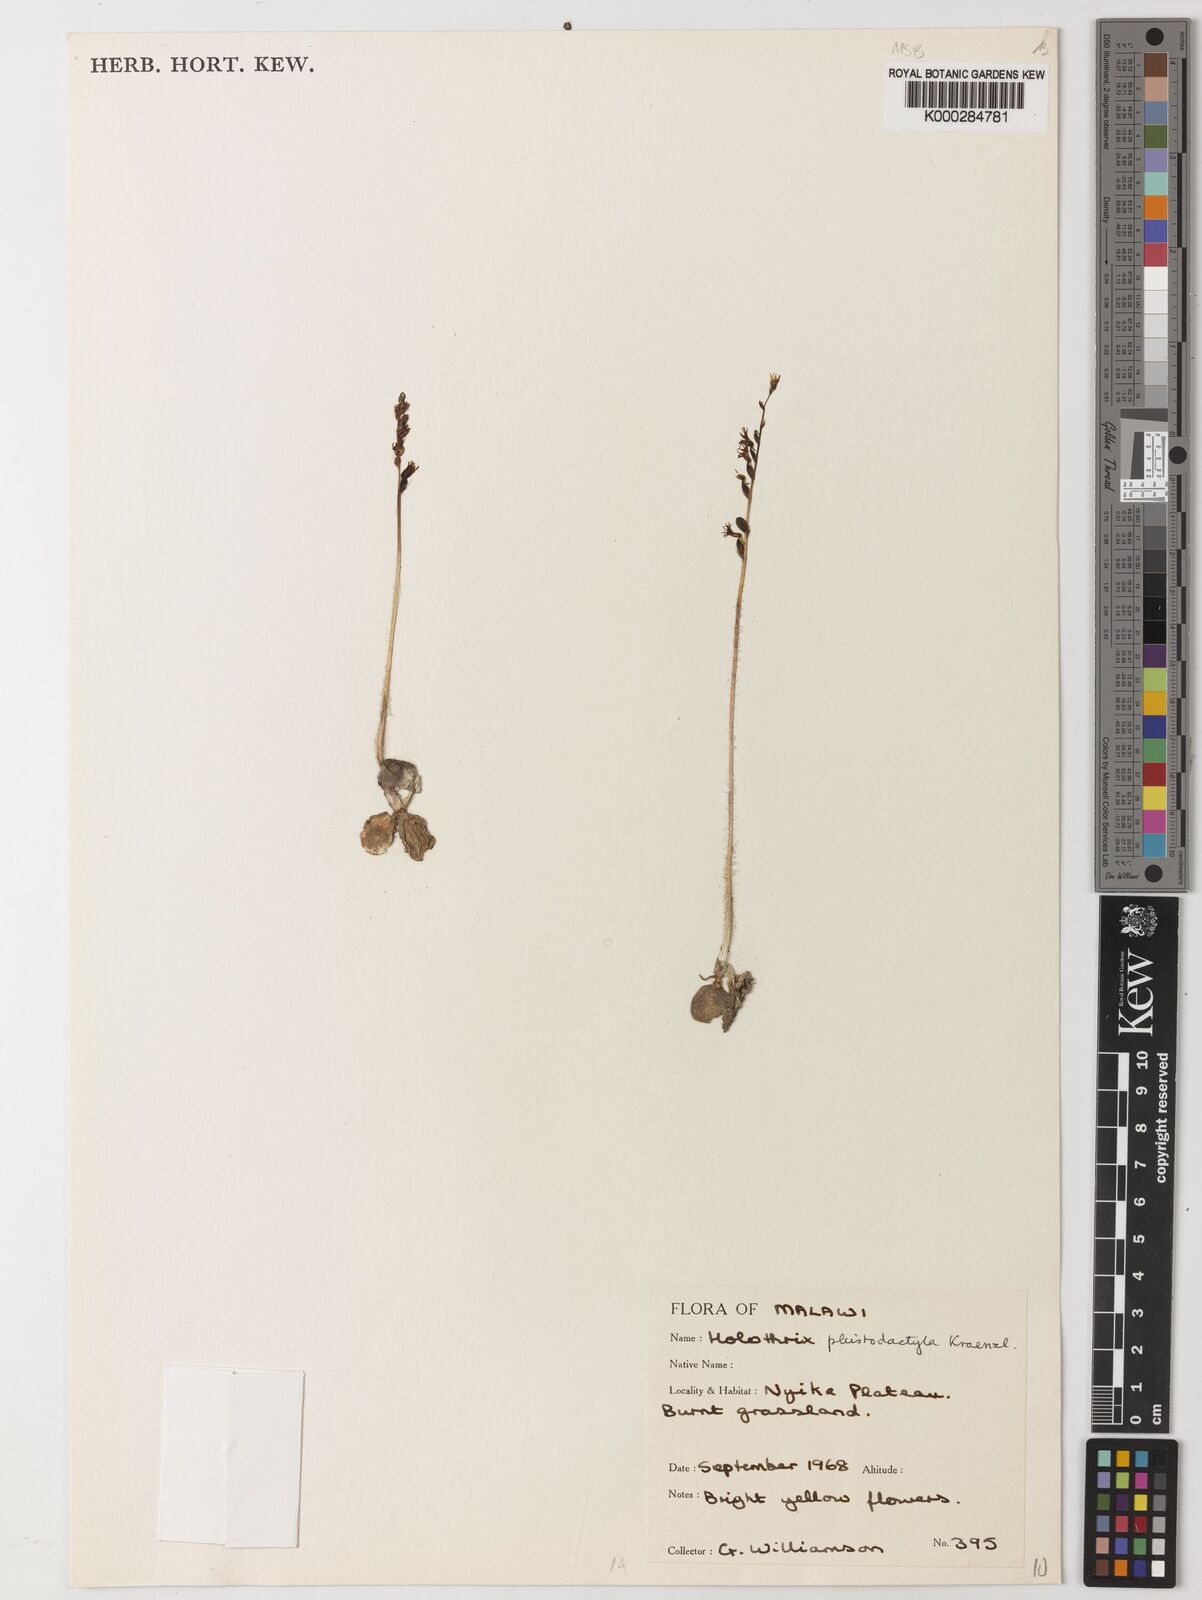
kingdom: Plantae
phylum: Tracheophyta
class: Liliopsida
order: Asparagales
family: Orchidaceae
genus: Holothrix
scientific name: Holothrix pleistodactyla
